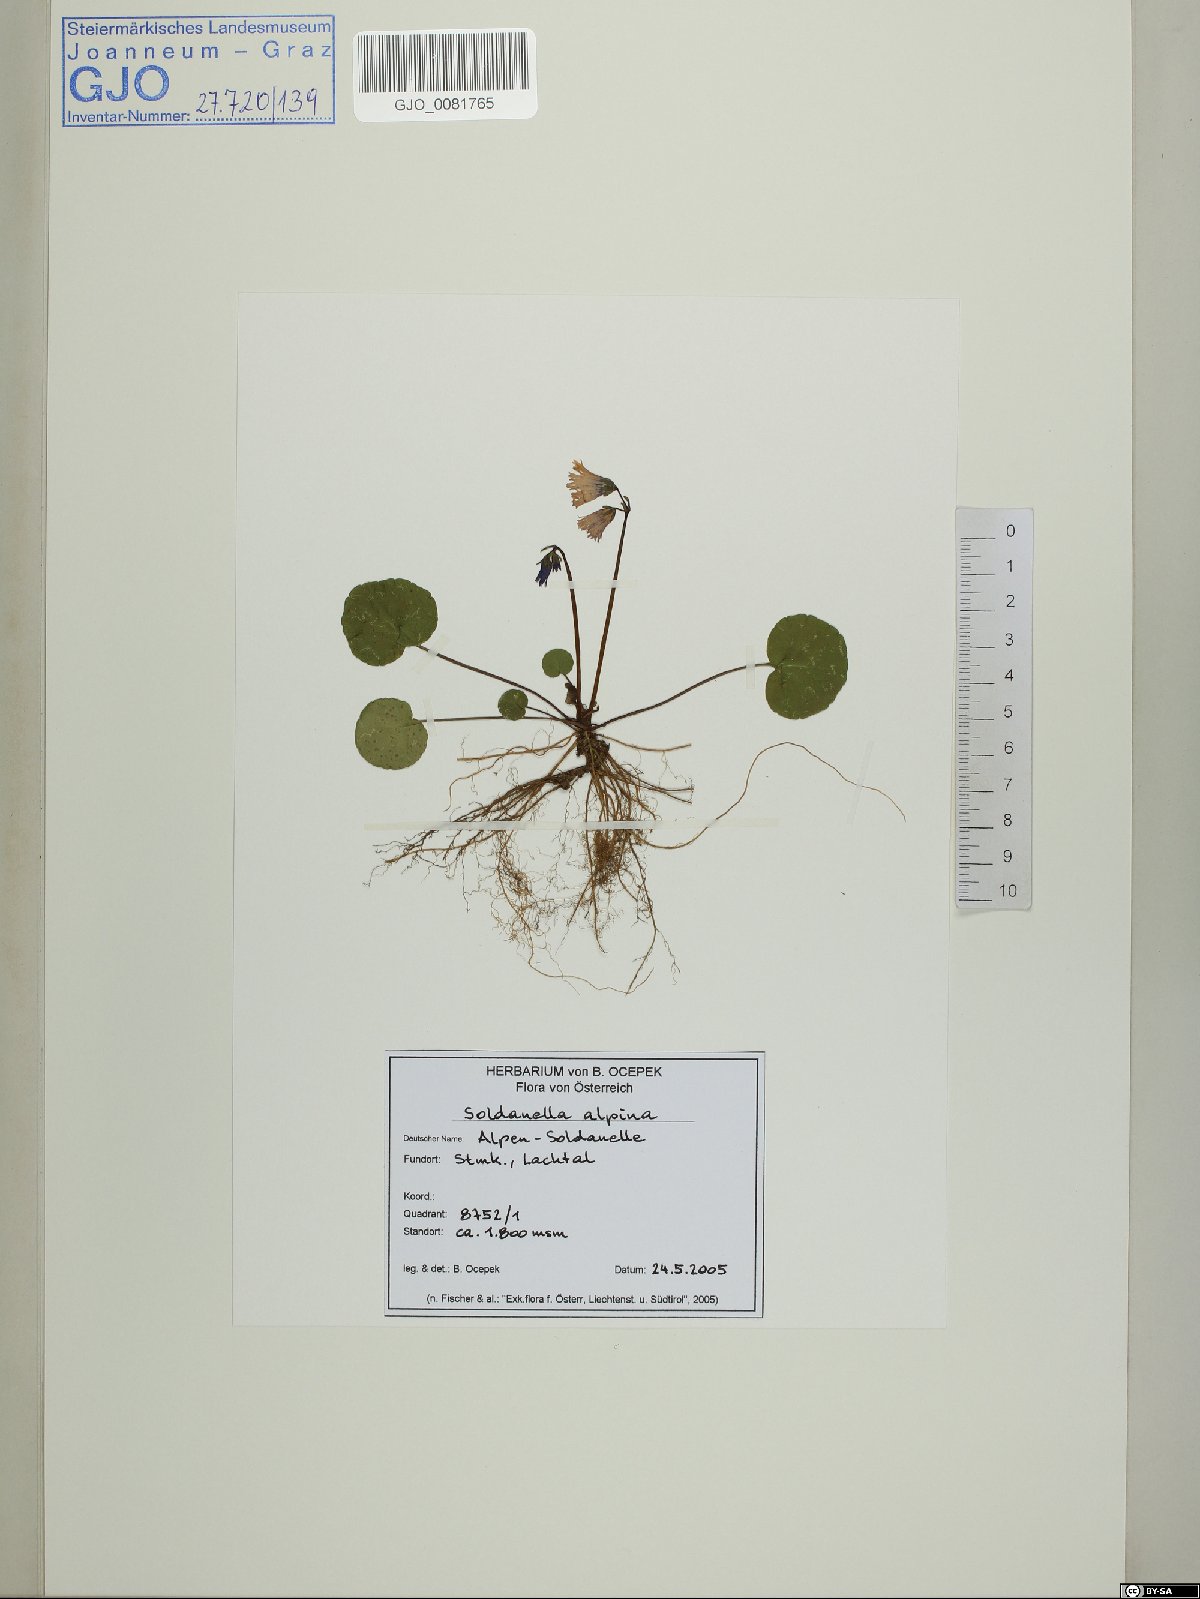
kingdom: Plantae
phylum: Tracheophyta
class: Magnoliopsida
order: Ericales
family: Primulaceae
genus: Soldanella
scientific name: Soldanella alpina
